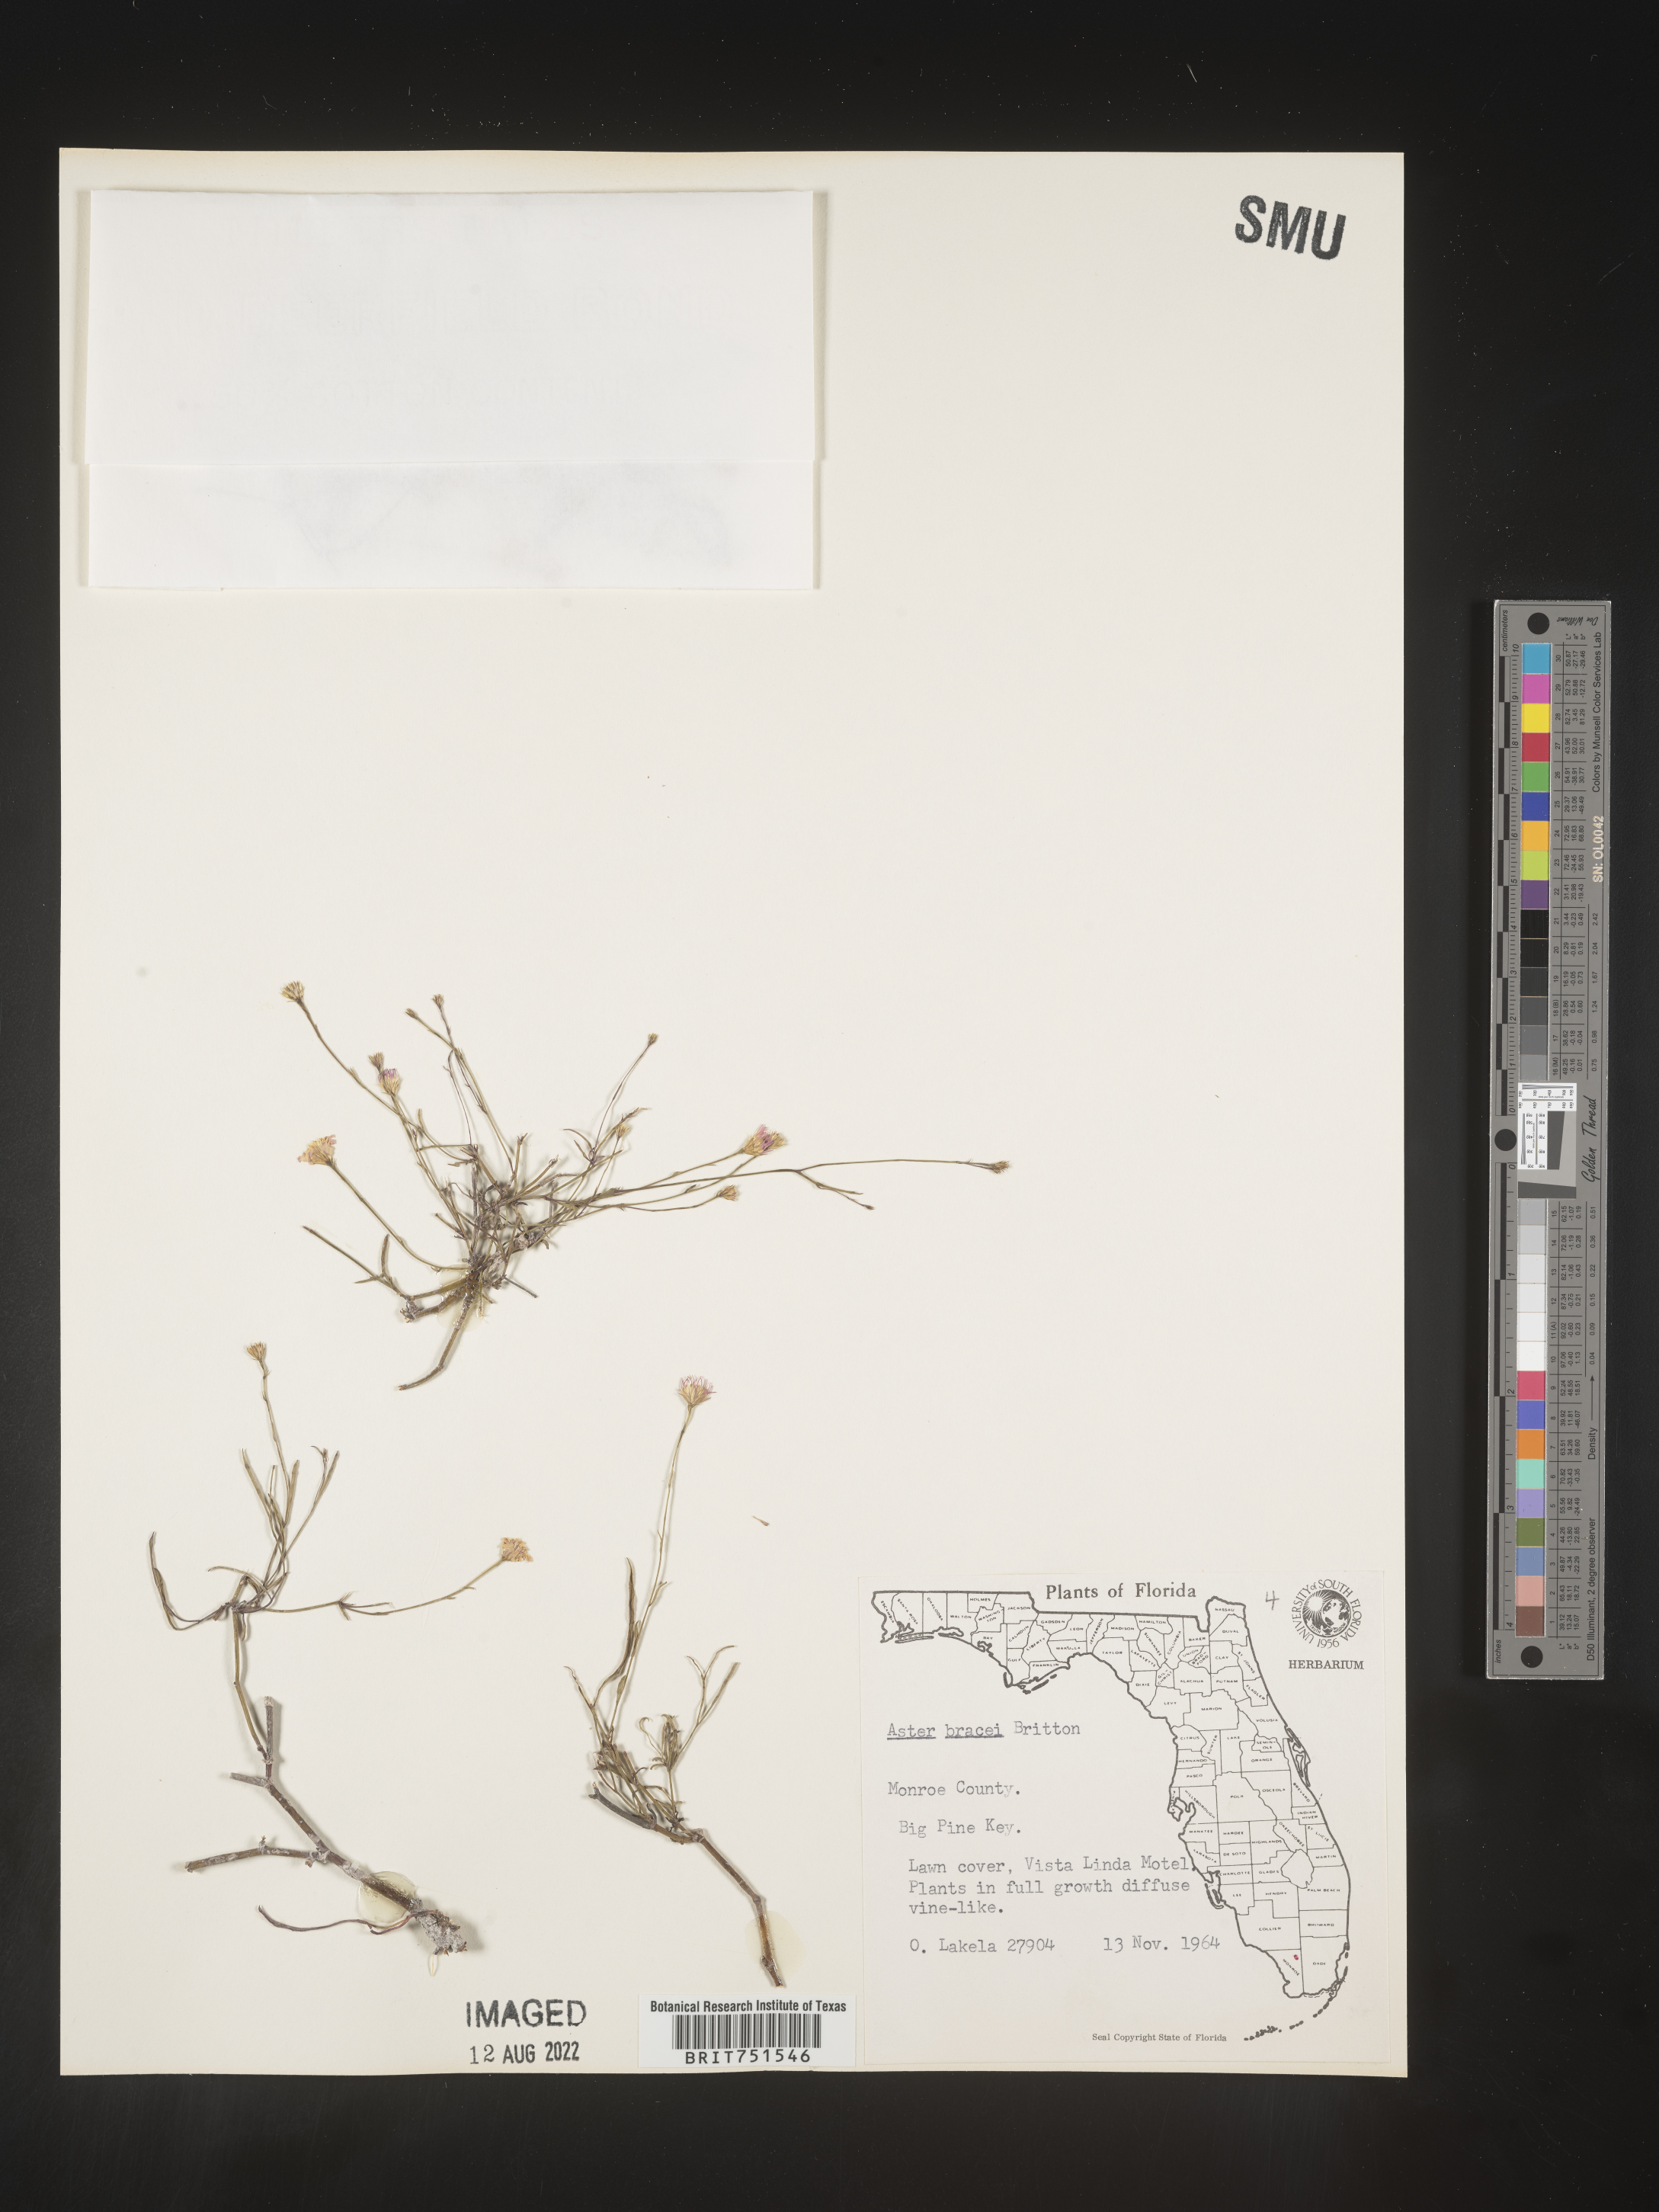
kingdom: Plantae
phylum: Tracheophyta
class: Magnoliopsida
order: Asterales
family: Asteraceae
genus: Symphyotrichum
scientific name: Symphyotrichum tenuifolium
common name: Perennial salt-marsh aster
